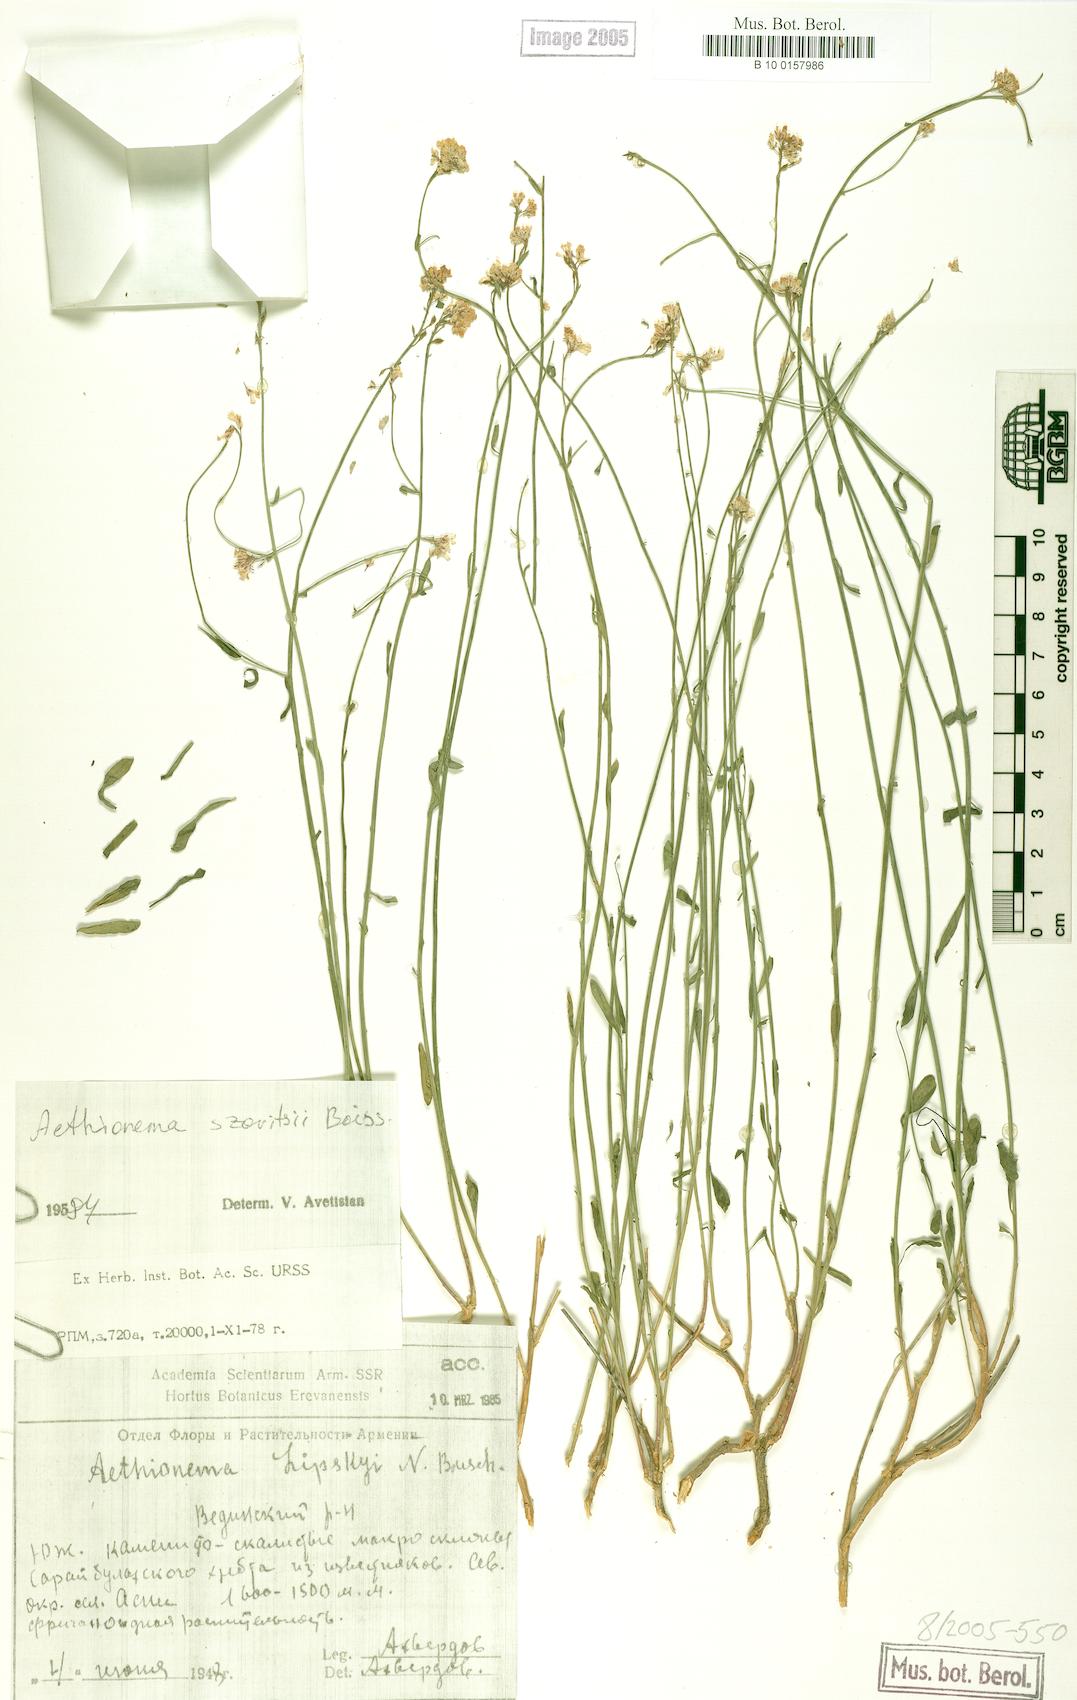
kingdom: Plantae
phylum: Tracheophyta
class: Magnoliopsida
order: Brassicales
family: Brassicaceae
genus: Aethionema
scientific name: Aethionema virgatum
